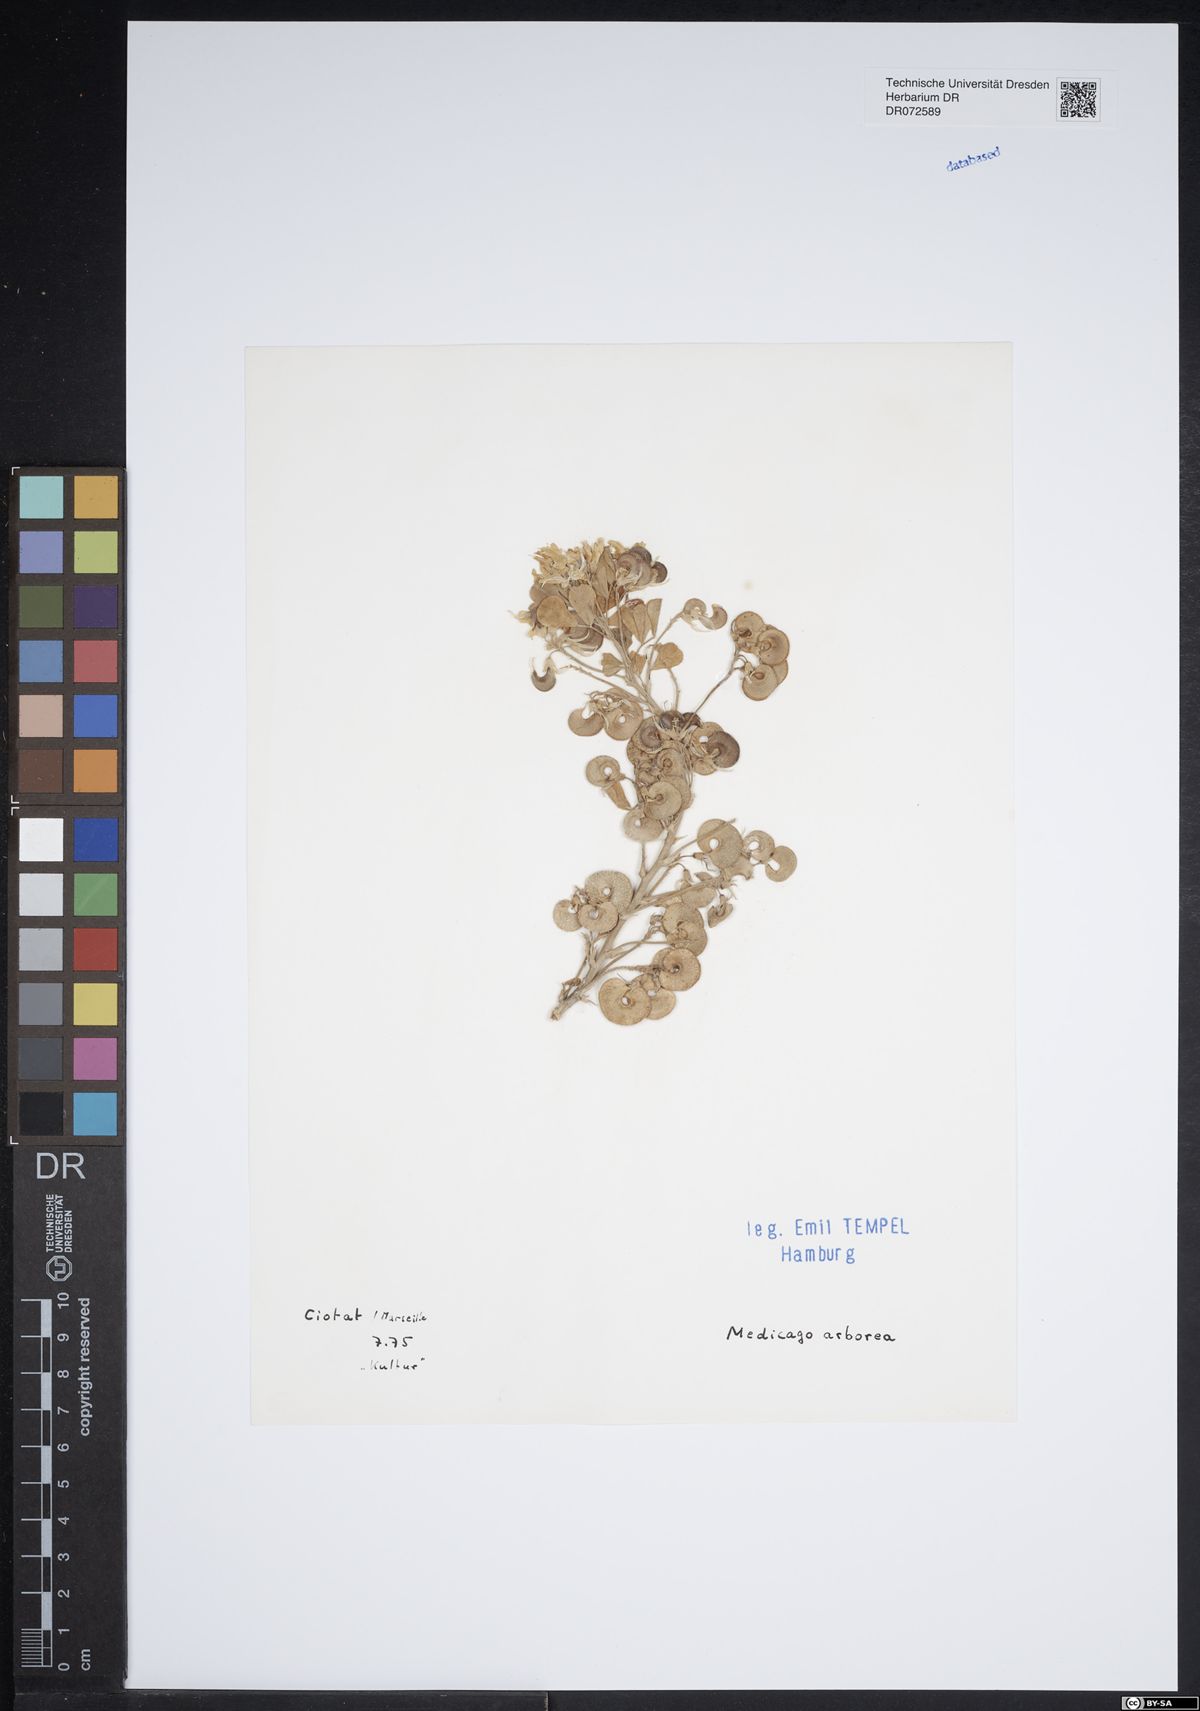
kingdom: Plantae
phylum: Tracheophyta
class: Magnoliopsida
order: Fabales
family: Fabaceae
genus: Medicago
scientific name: Medicago arborea
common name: Moon trefoil
